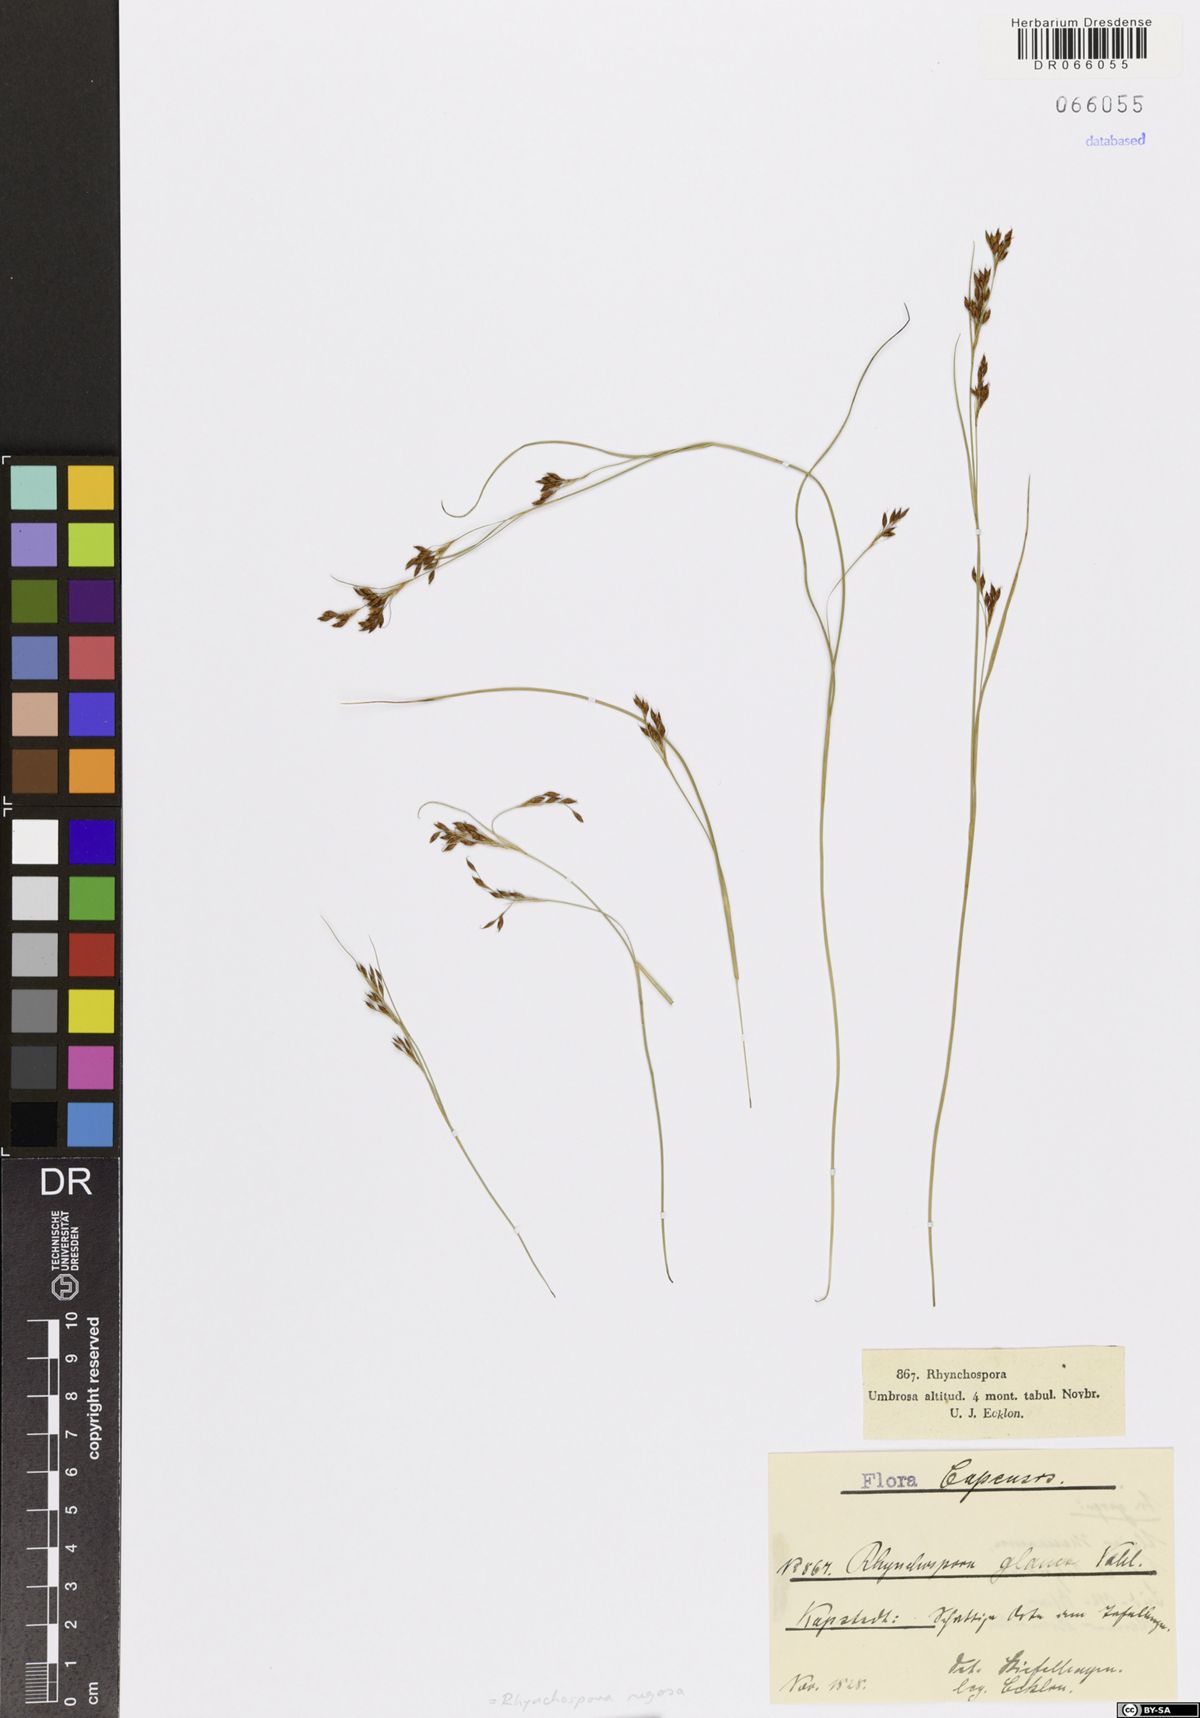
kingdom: Plantae
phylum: Tracheophyta
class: Liliopsida
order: Poales
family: Cyperaceae
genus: Rhynchospora
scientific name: Rhynchospora rugosa
